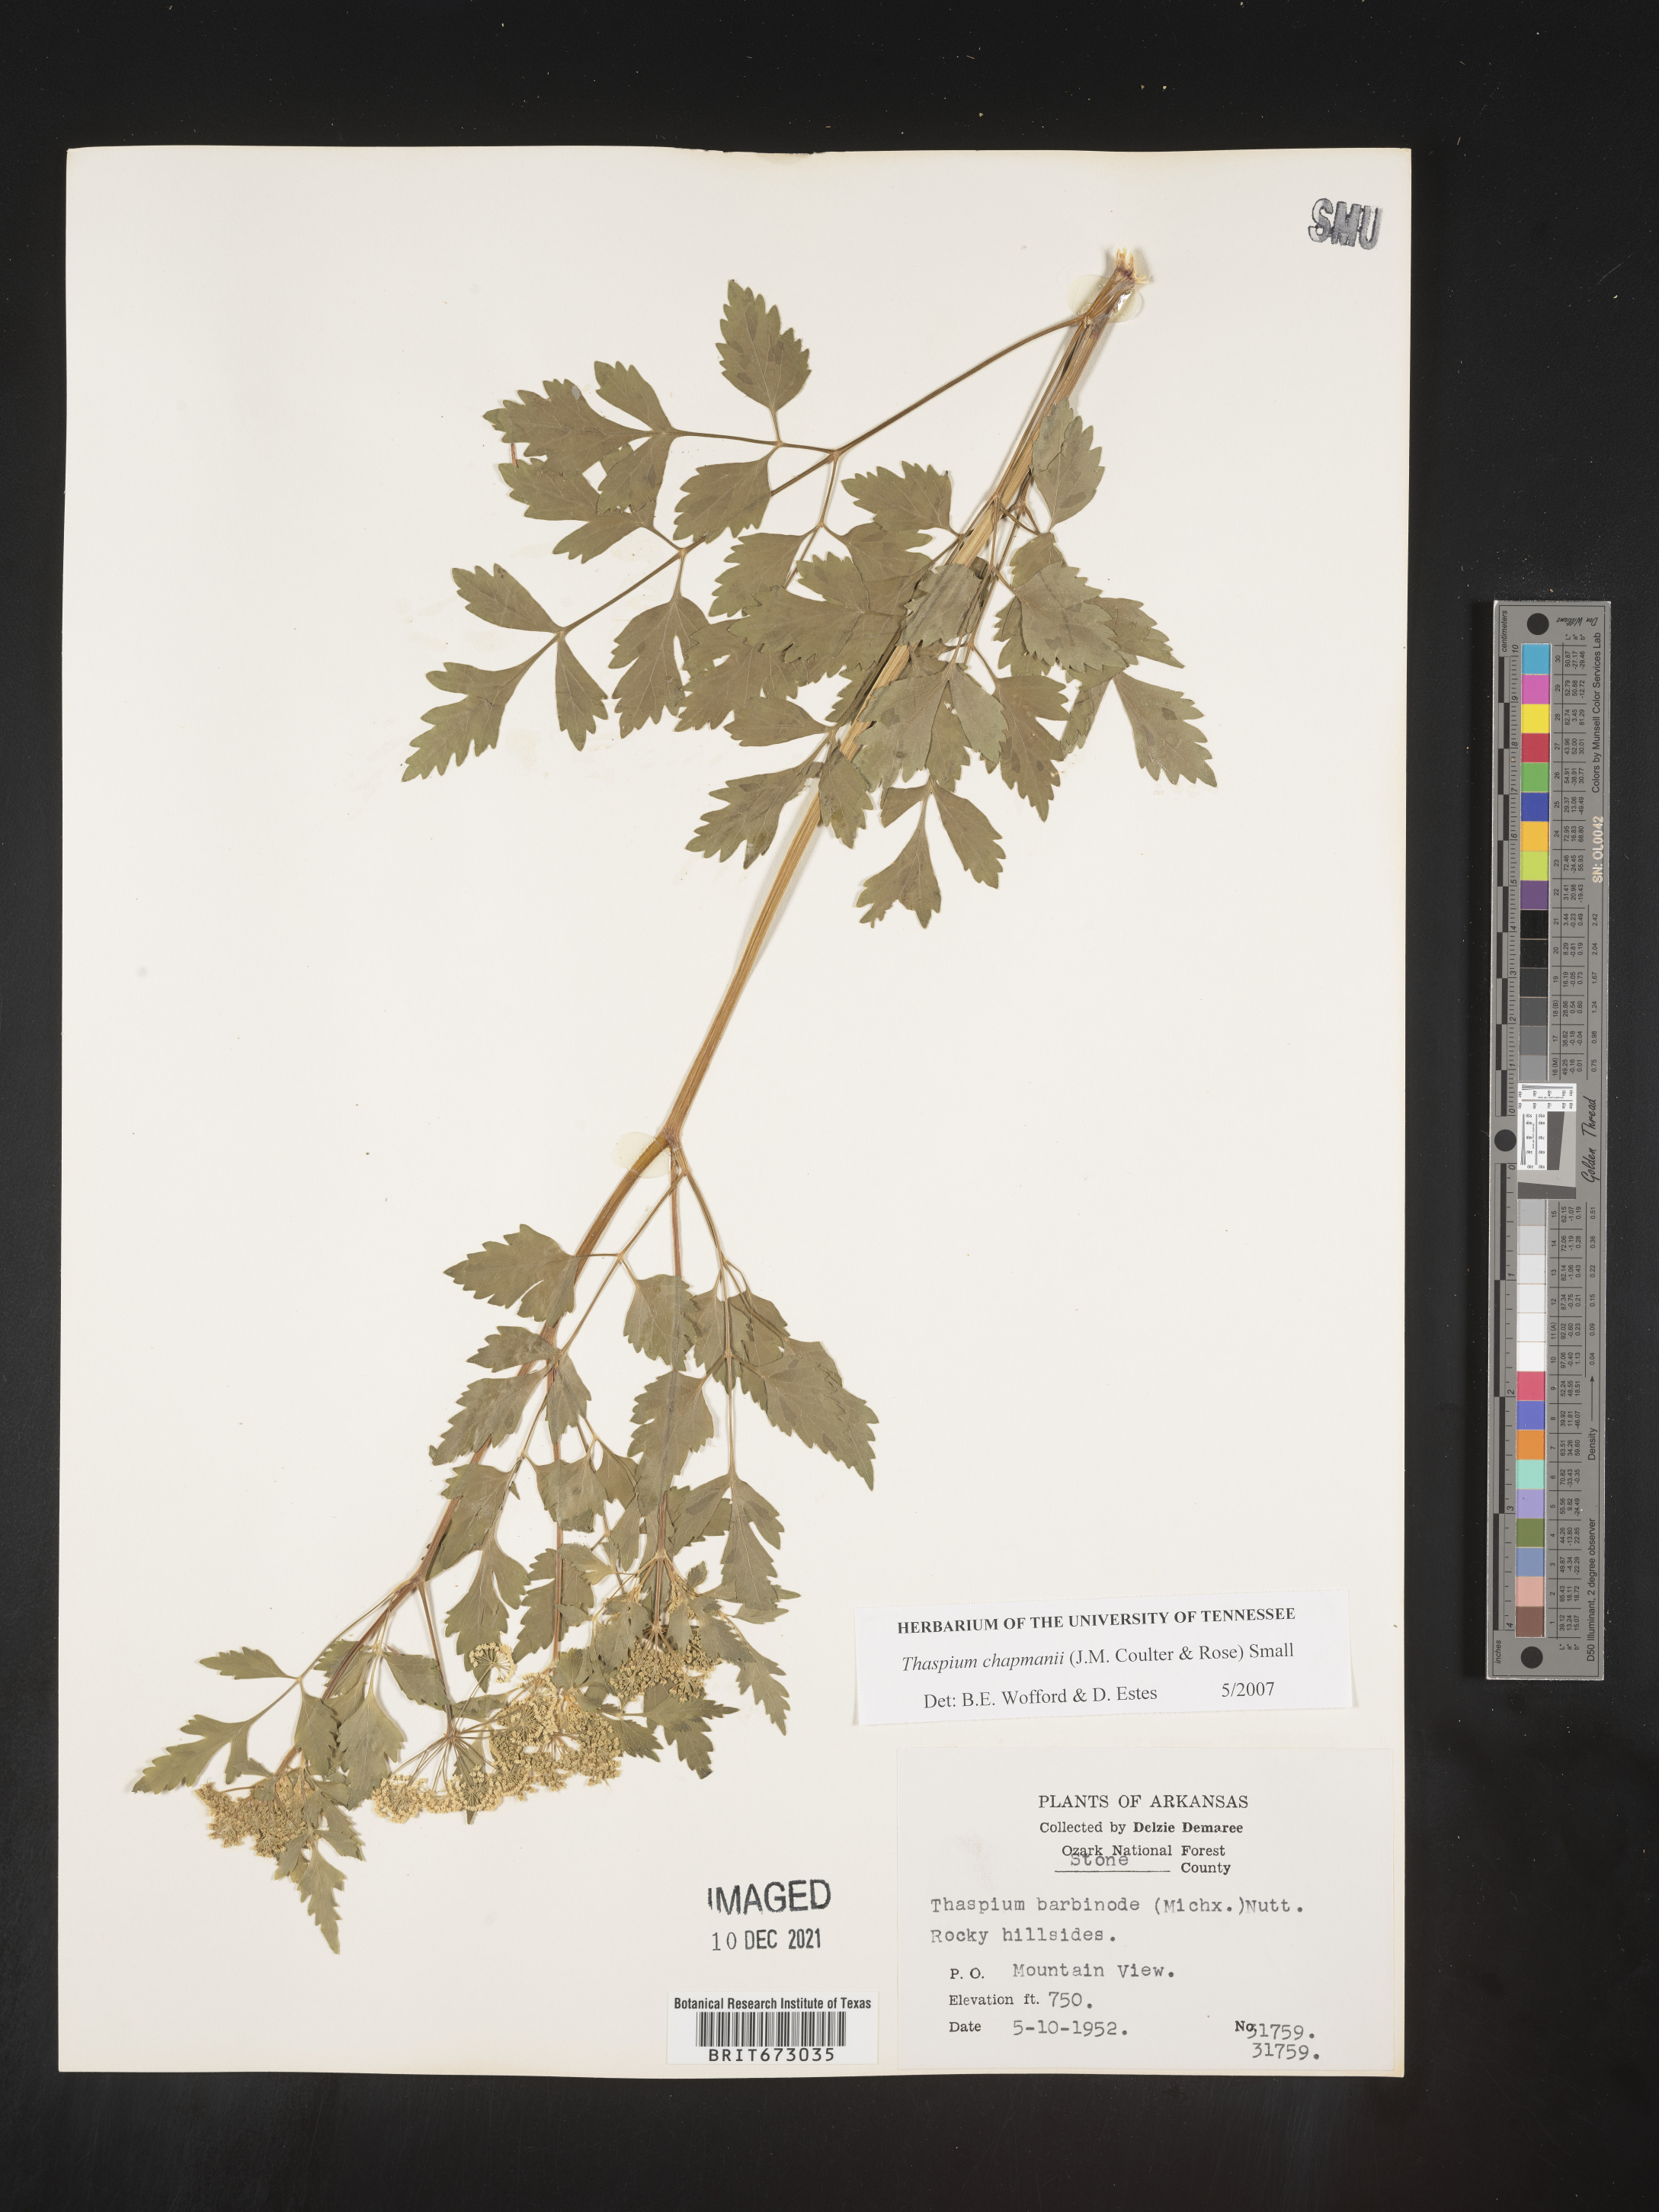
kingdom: Plantae
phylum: Tracheophyta
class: Magnoliopsida
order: Apiales
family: Apiaceae
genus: Thaspium
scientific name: Thaspium barbinode
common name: Bearded meadow-parsnip
